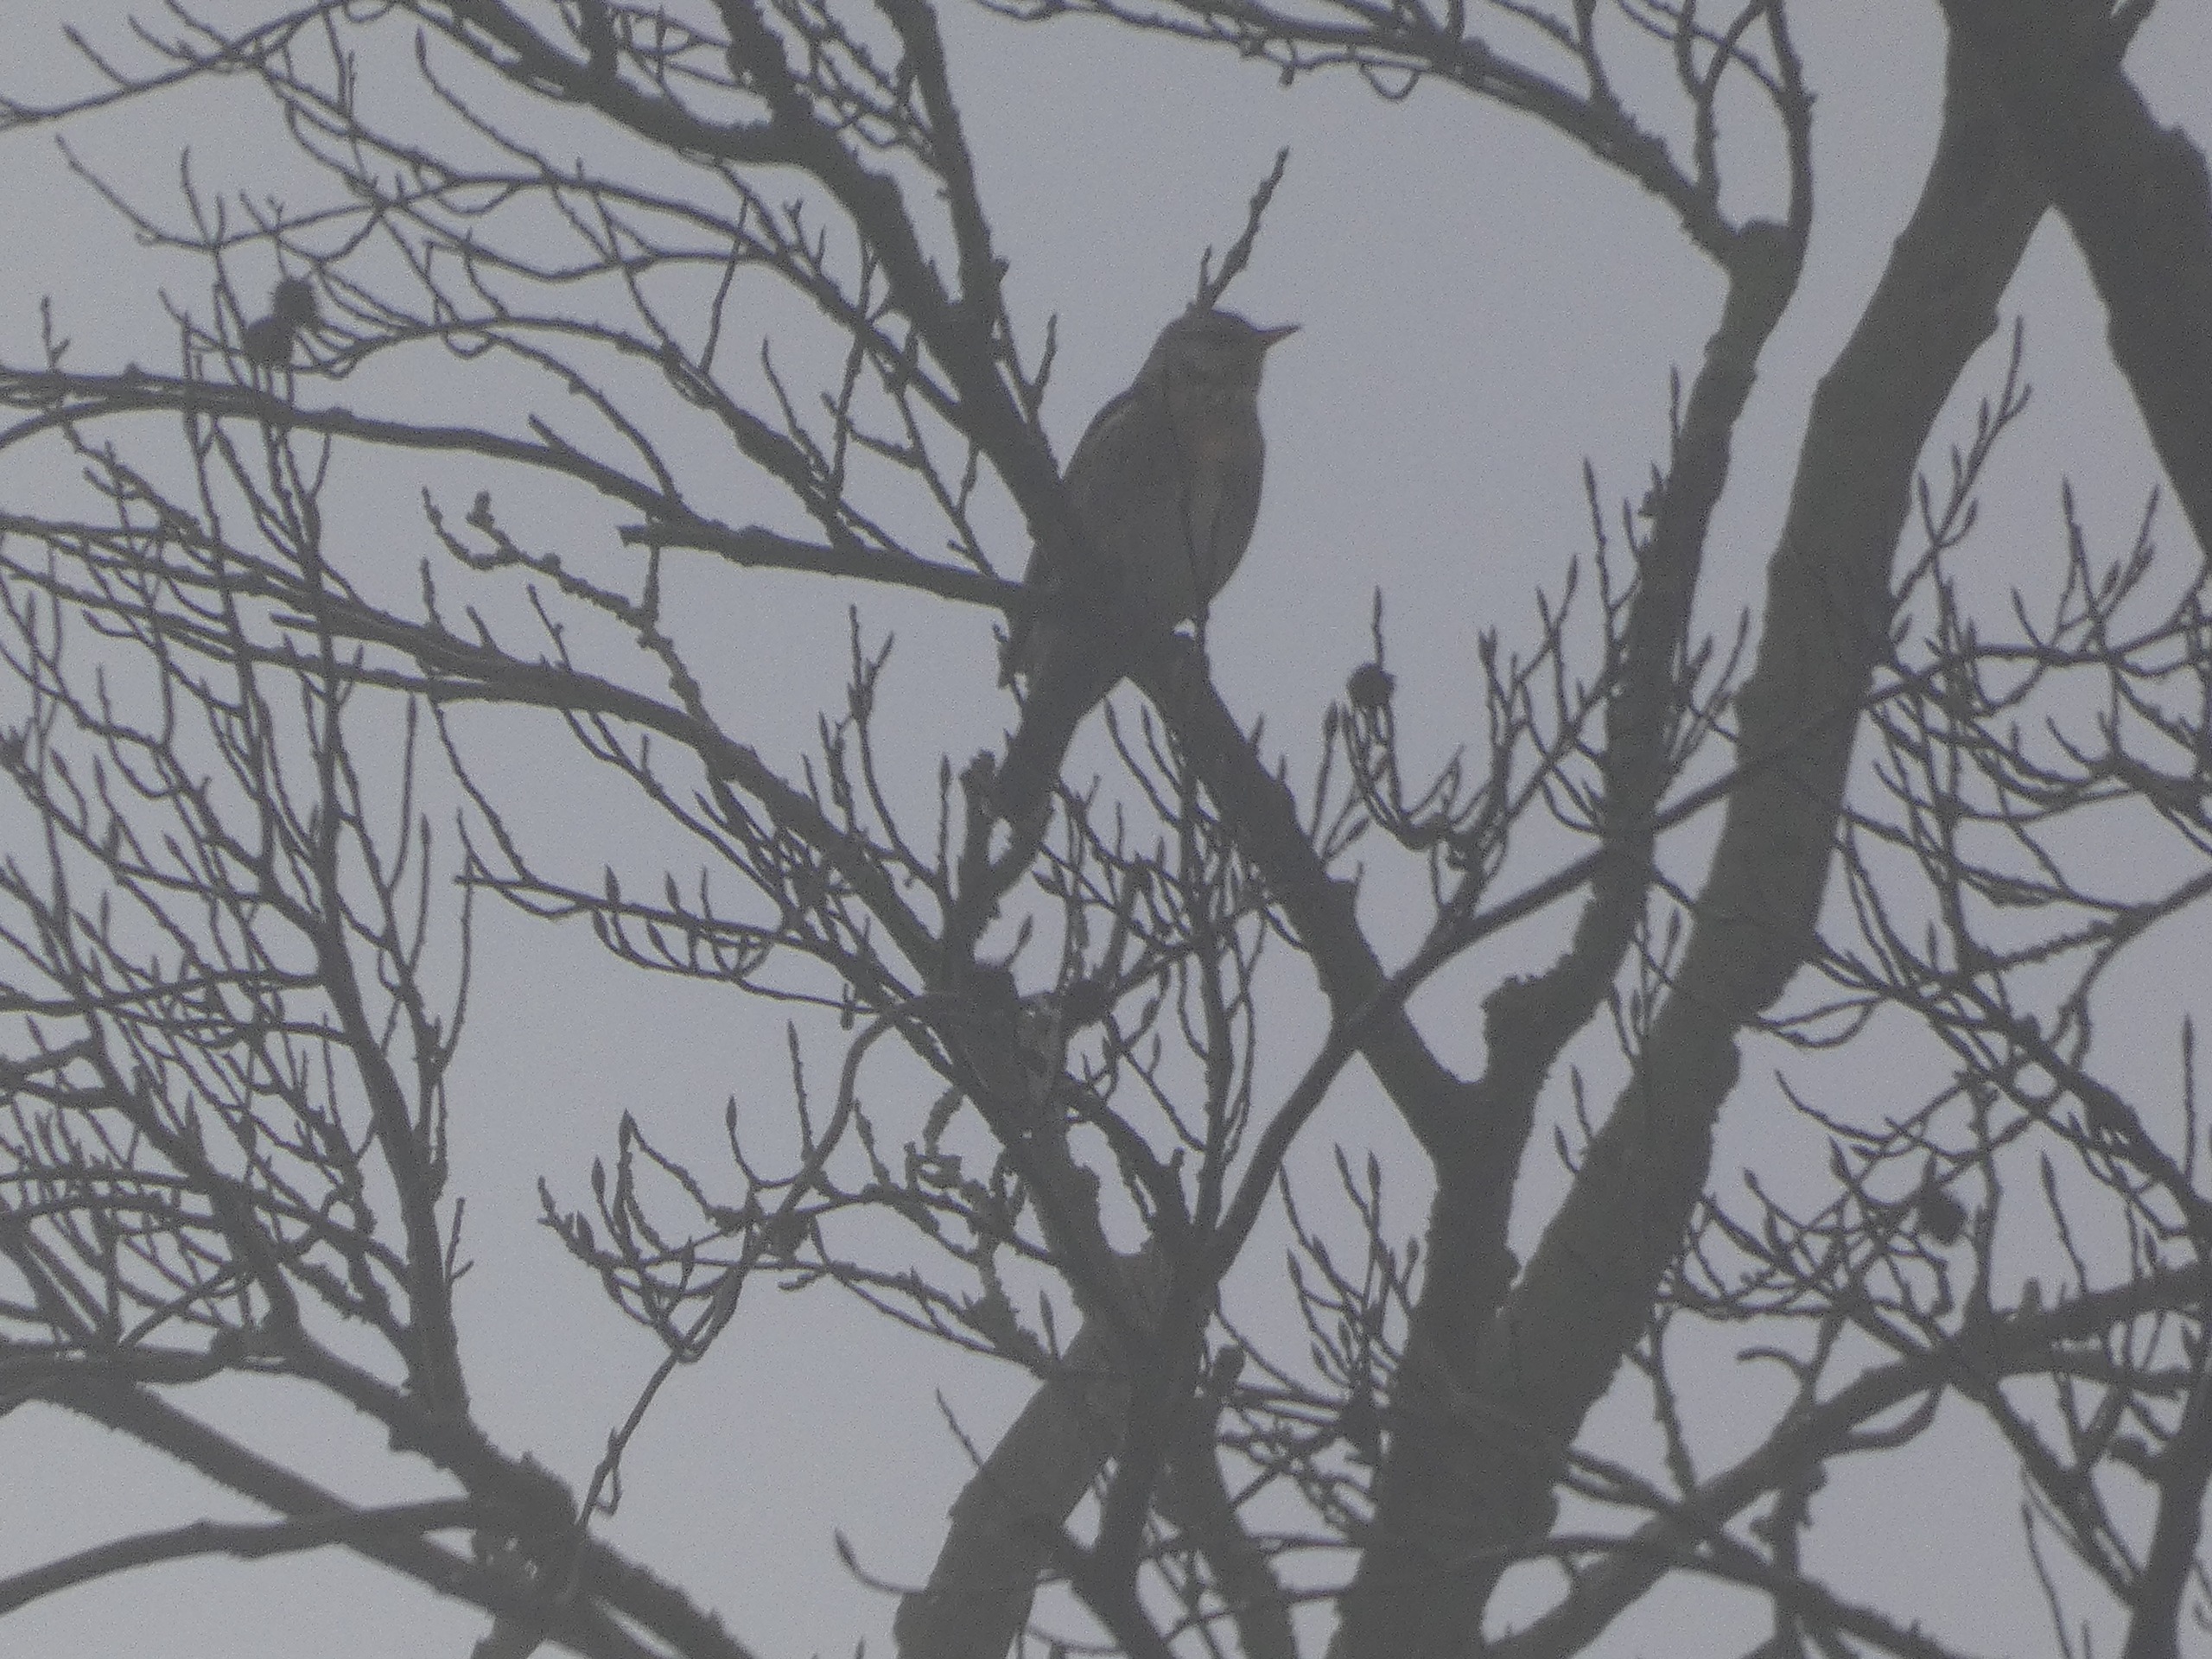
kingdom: Animalia
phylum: Chordata
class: Aves
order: Passeriformes
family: Turdidae
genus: Turdus
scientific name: Turdus pilaris
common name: Sjagger
